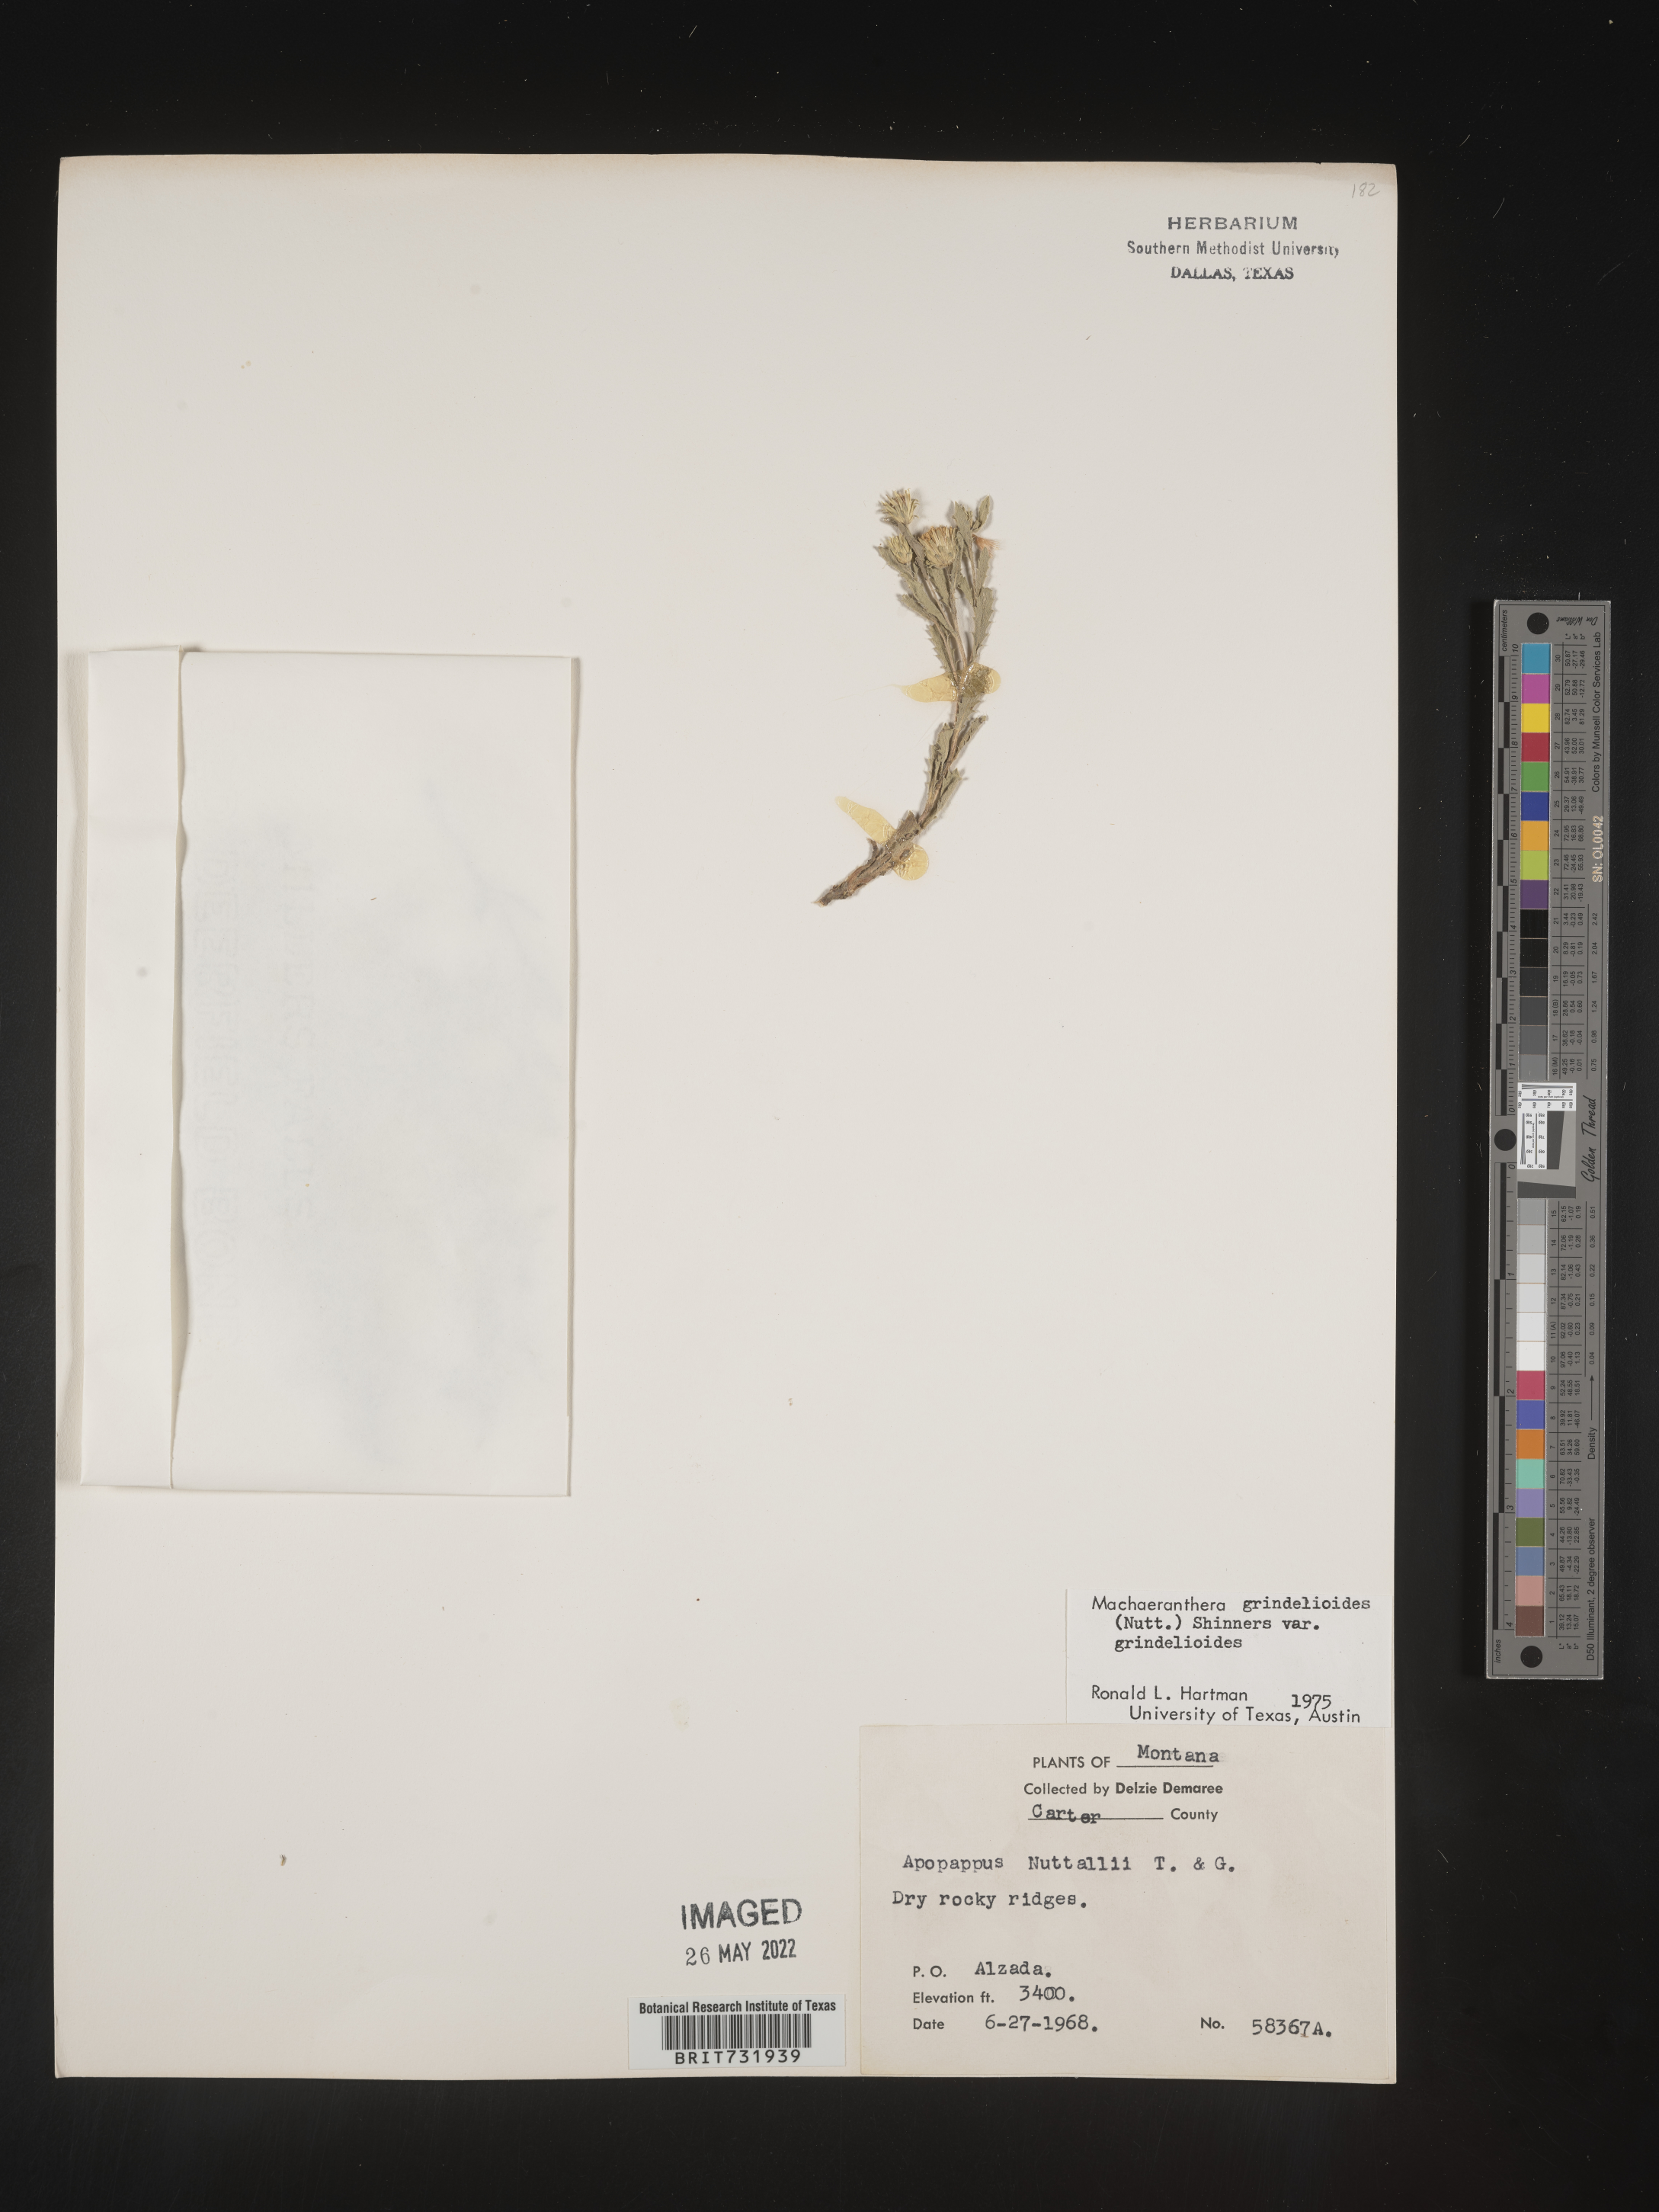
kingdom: Plantae
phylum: Tracheophyta
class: Magnoliopsida
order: Asterales
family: Asteraceae
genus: Xanthisma
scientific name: Xanthisma grindelioides
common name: Goldenweed
